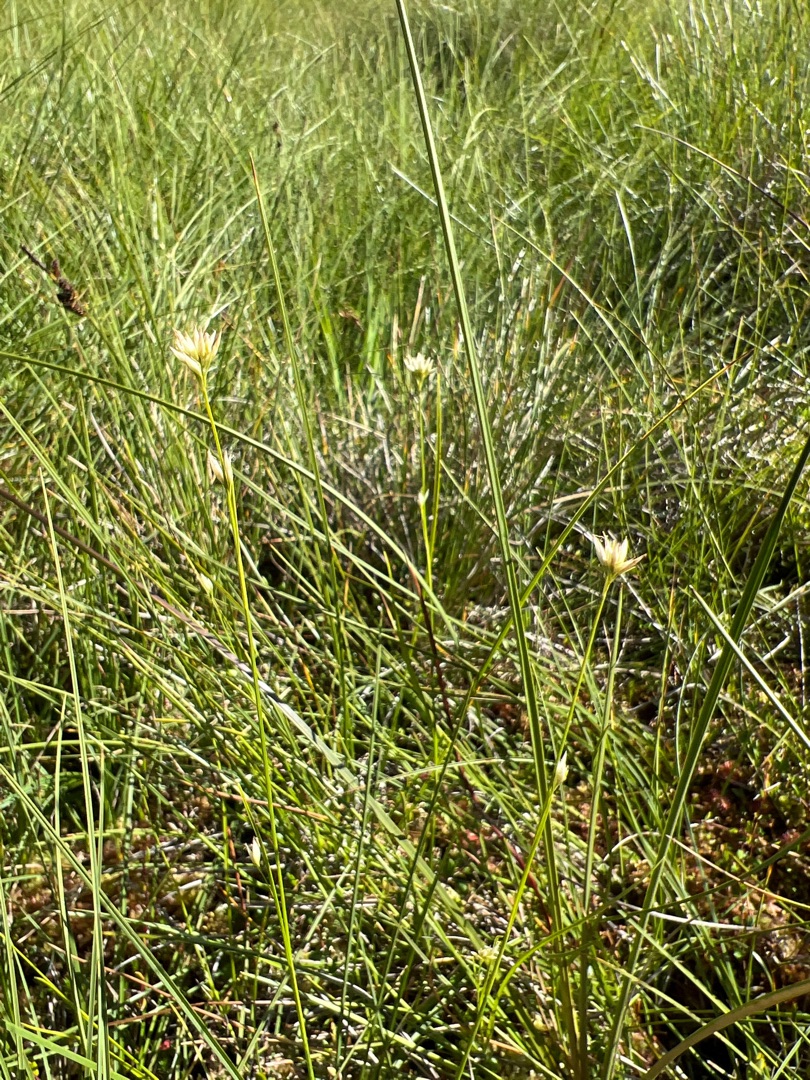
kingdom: Plantae
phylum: Tracheophyta
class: Liliopsida
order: Poales
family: Cyperaceae
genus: Rhynchospora
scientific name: Rhynchospora alba
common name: Hvid næbfrø
